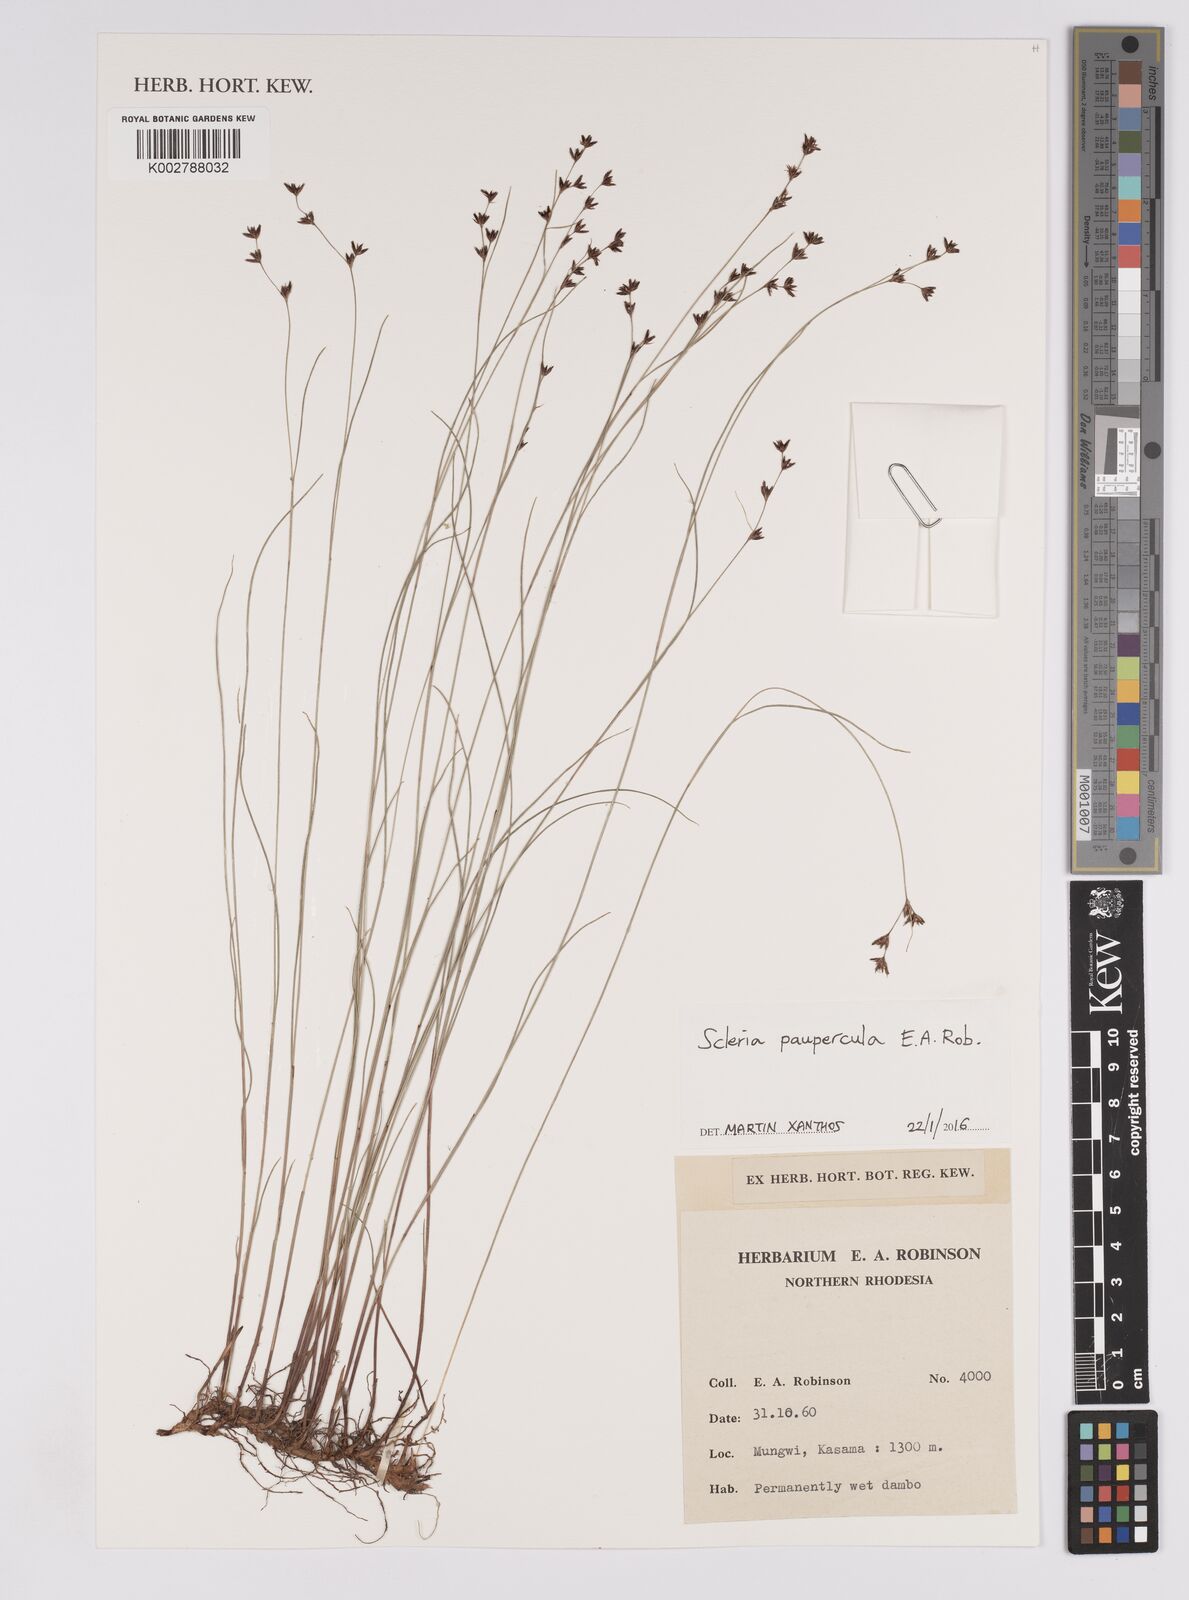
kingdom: Plantae
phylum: Tracheophyta
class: Liliopsida
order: Poales
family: Cyperaceae
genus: Scleria
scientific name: Scleria paupercula
